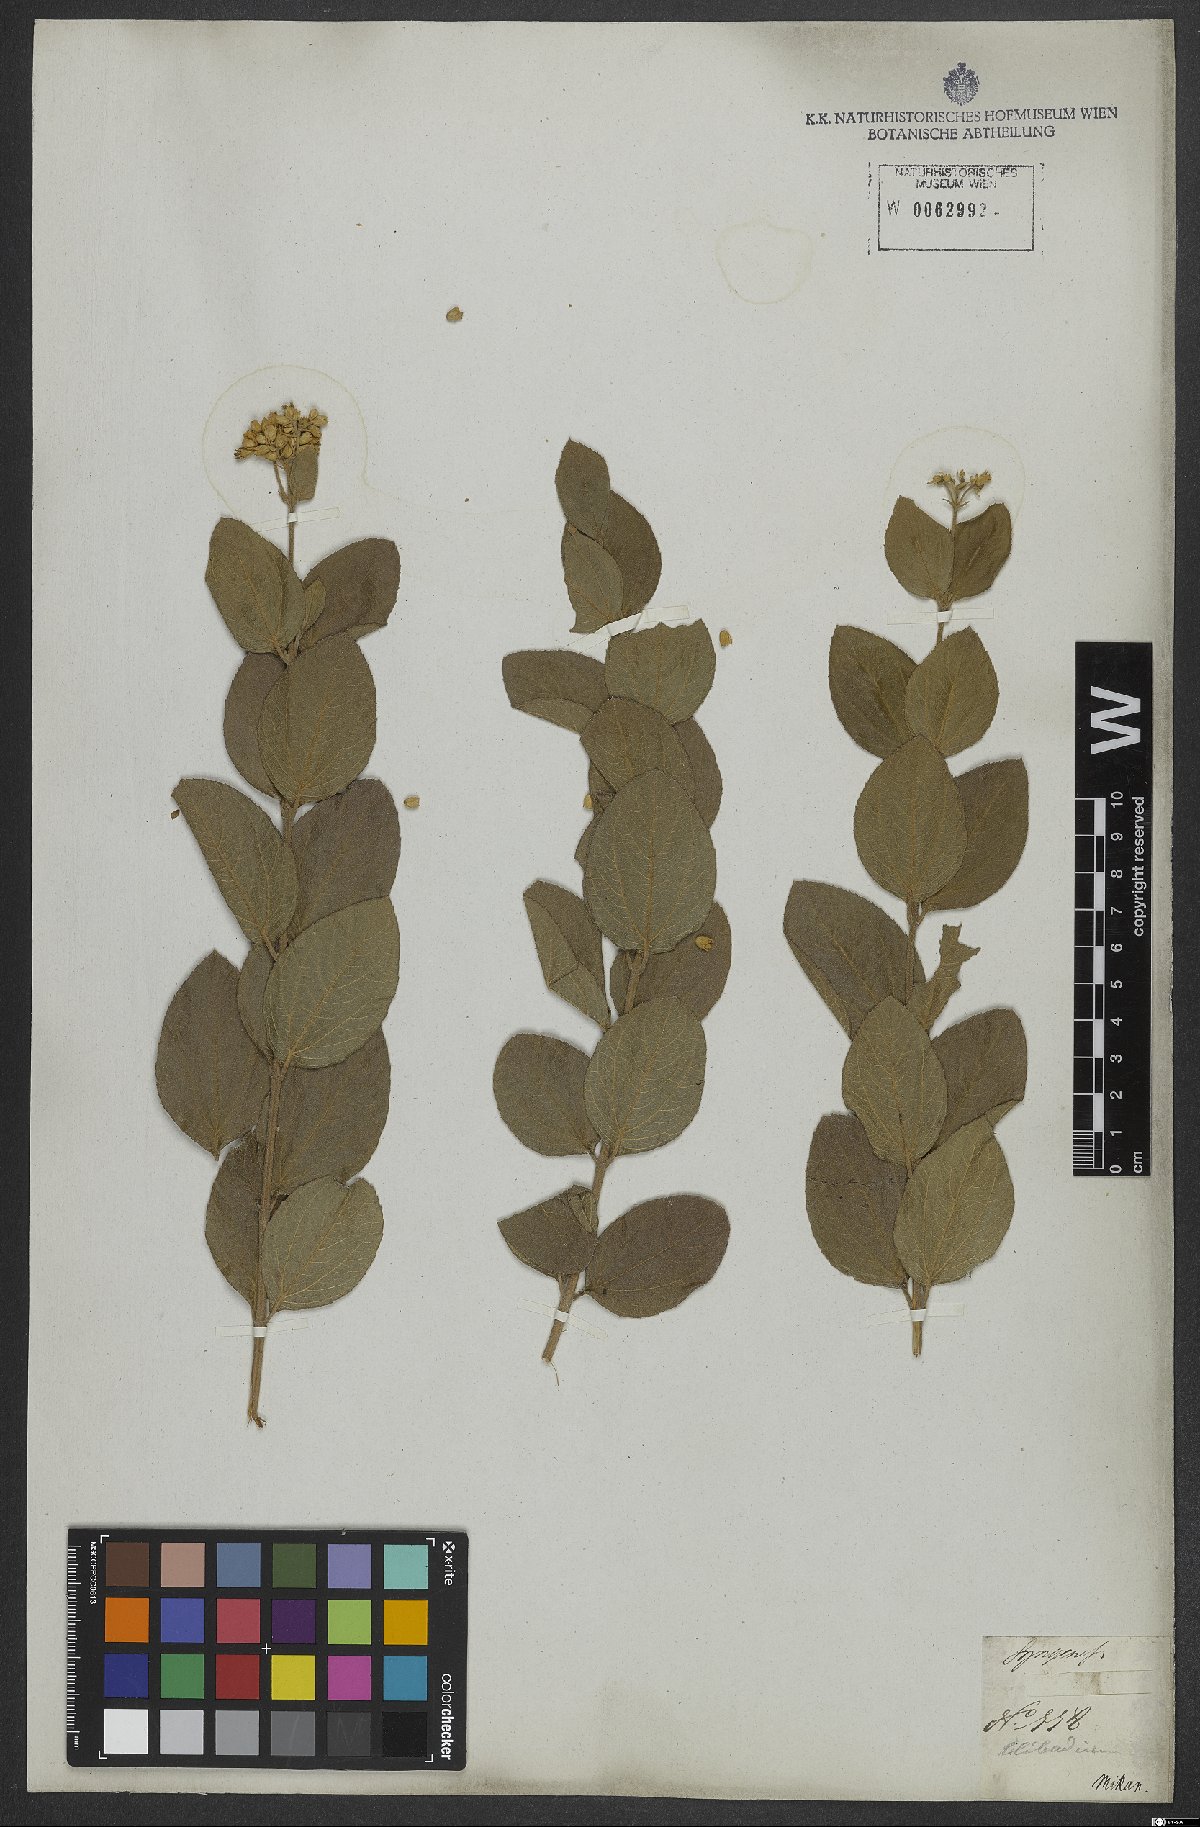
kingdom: Plantae
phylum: Tracheophyta
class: Magnoliopsida
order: Asterales
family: Asteraceae
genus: Clibadium
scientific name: Clibadium
